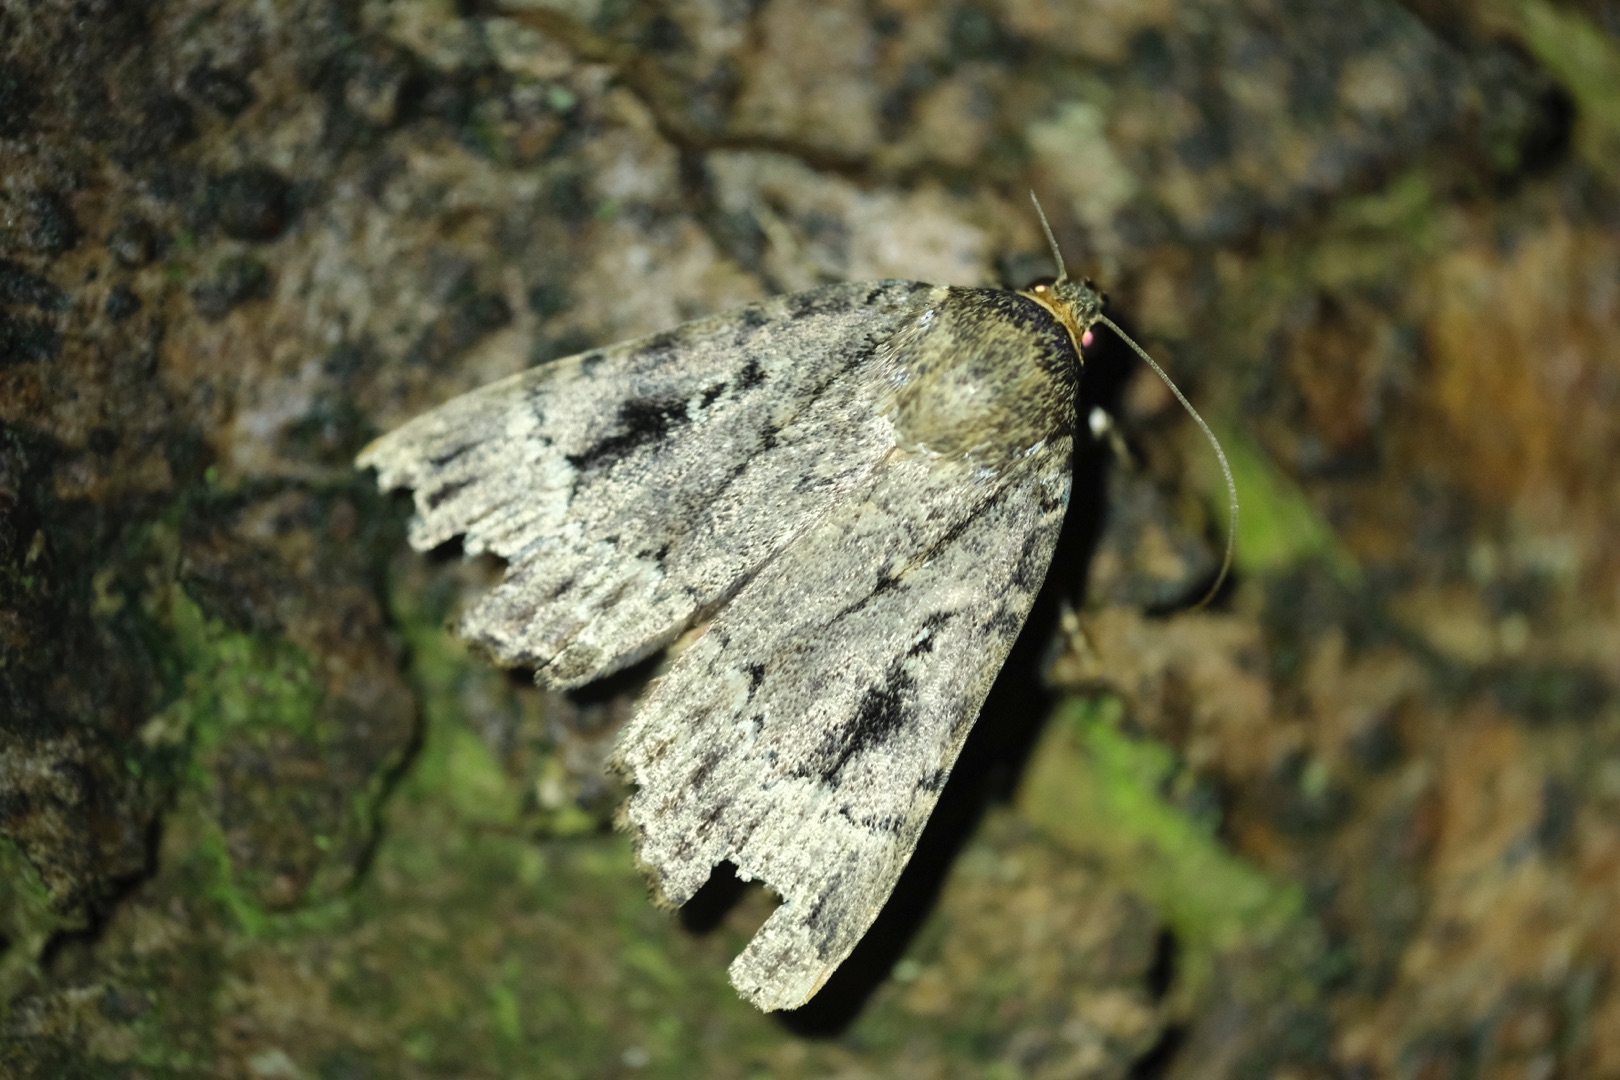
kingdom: Animalia
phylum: Arthropoda
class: Insecta
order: Lepidoptera
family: Noctuidae
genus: Amphipyra
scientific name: Amphipyra pyramidea
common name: Pyramideugle
